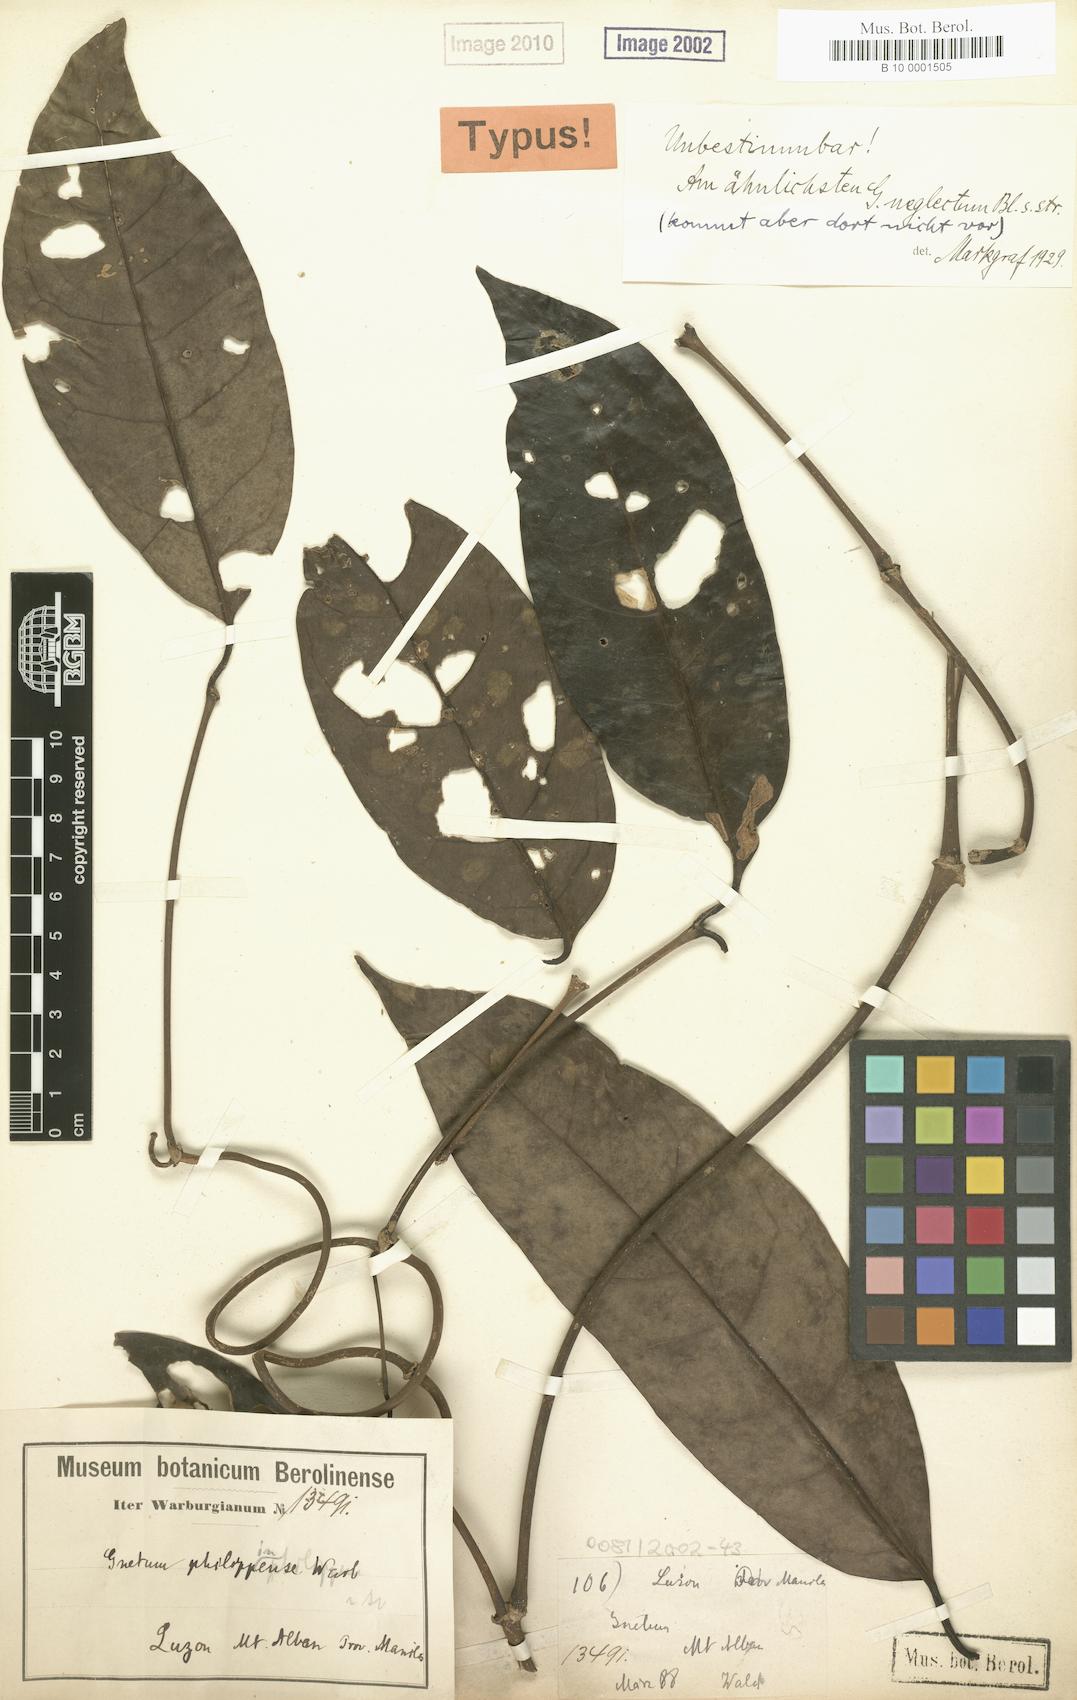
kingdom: Plantae
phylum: Tracheophyta
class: Gnetopsida
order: Gnetales
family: Gnetaceae
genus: Gnetum
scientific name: Gnetum latifolium
